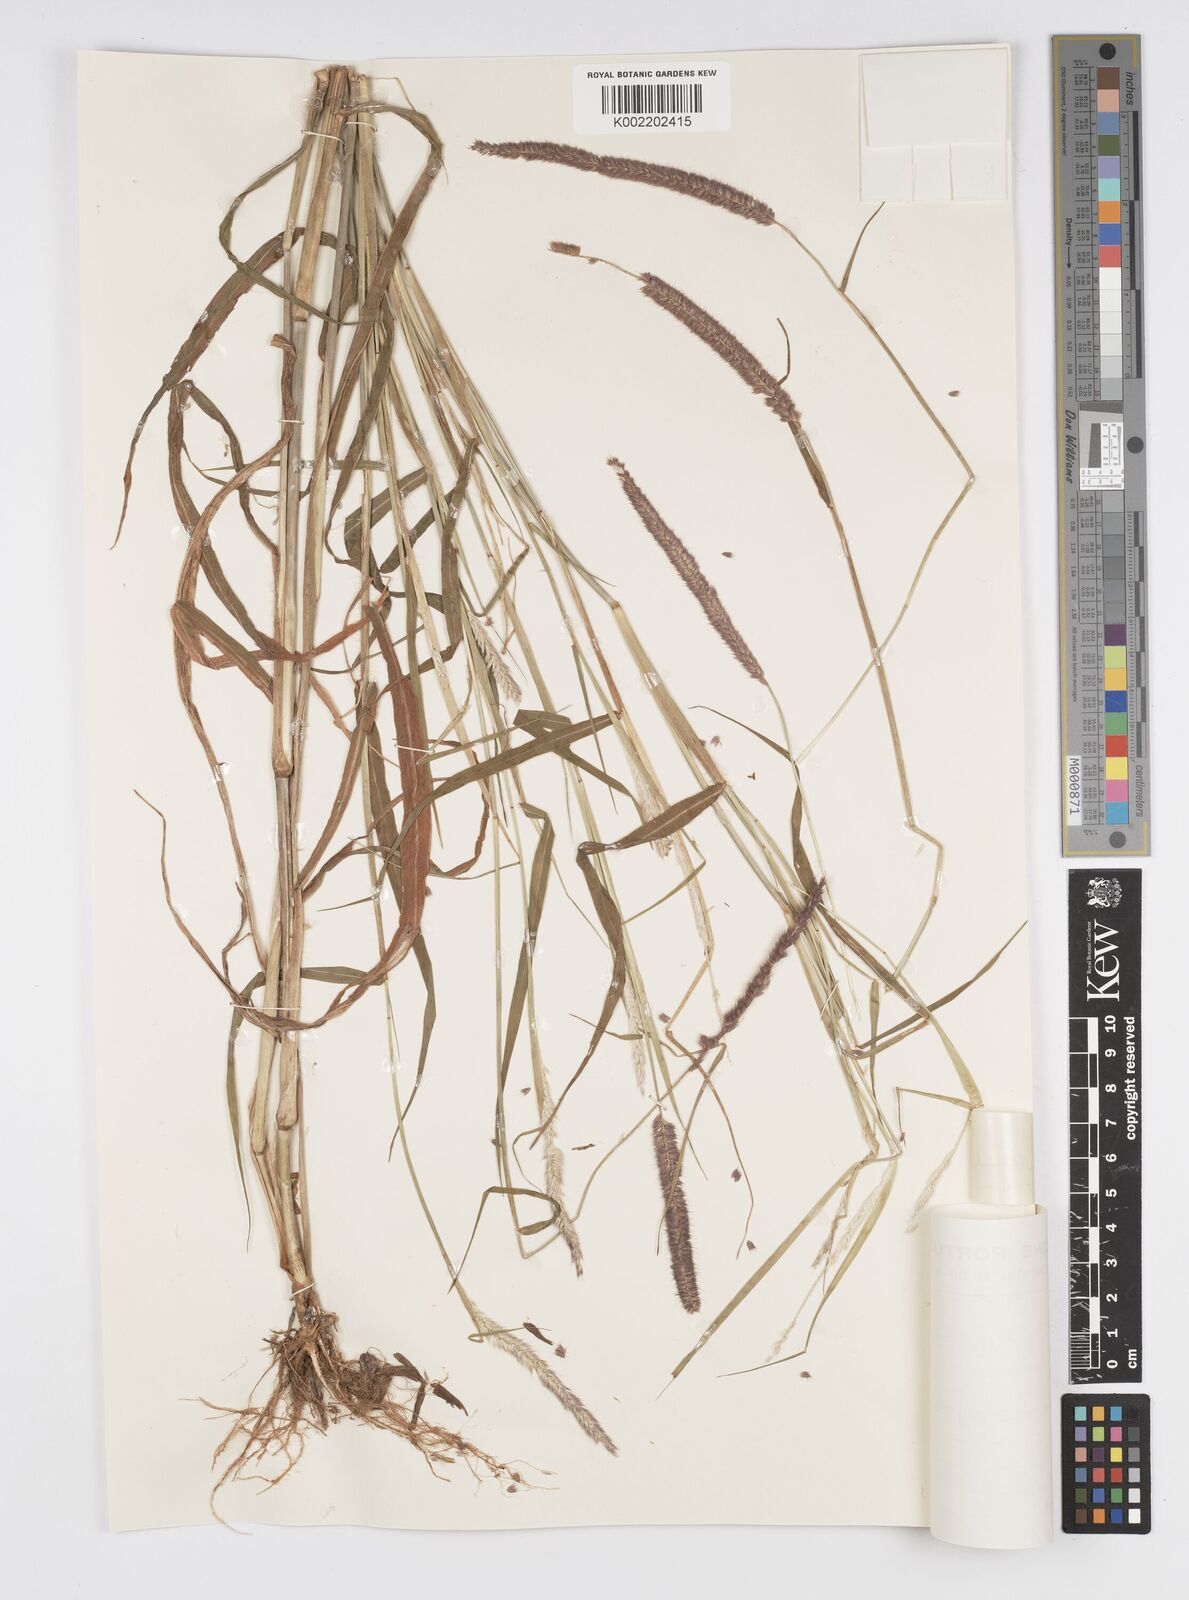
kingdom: Plantae
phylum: Tracheophyta
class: Liliopsida
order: Poales
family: Poaceae
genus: Setaria
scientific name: Setaria parviflora
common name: Knotroot bristle-grass
